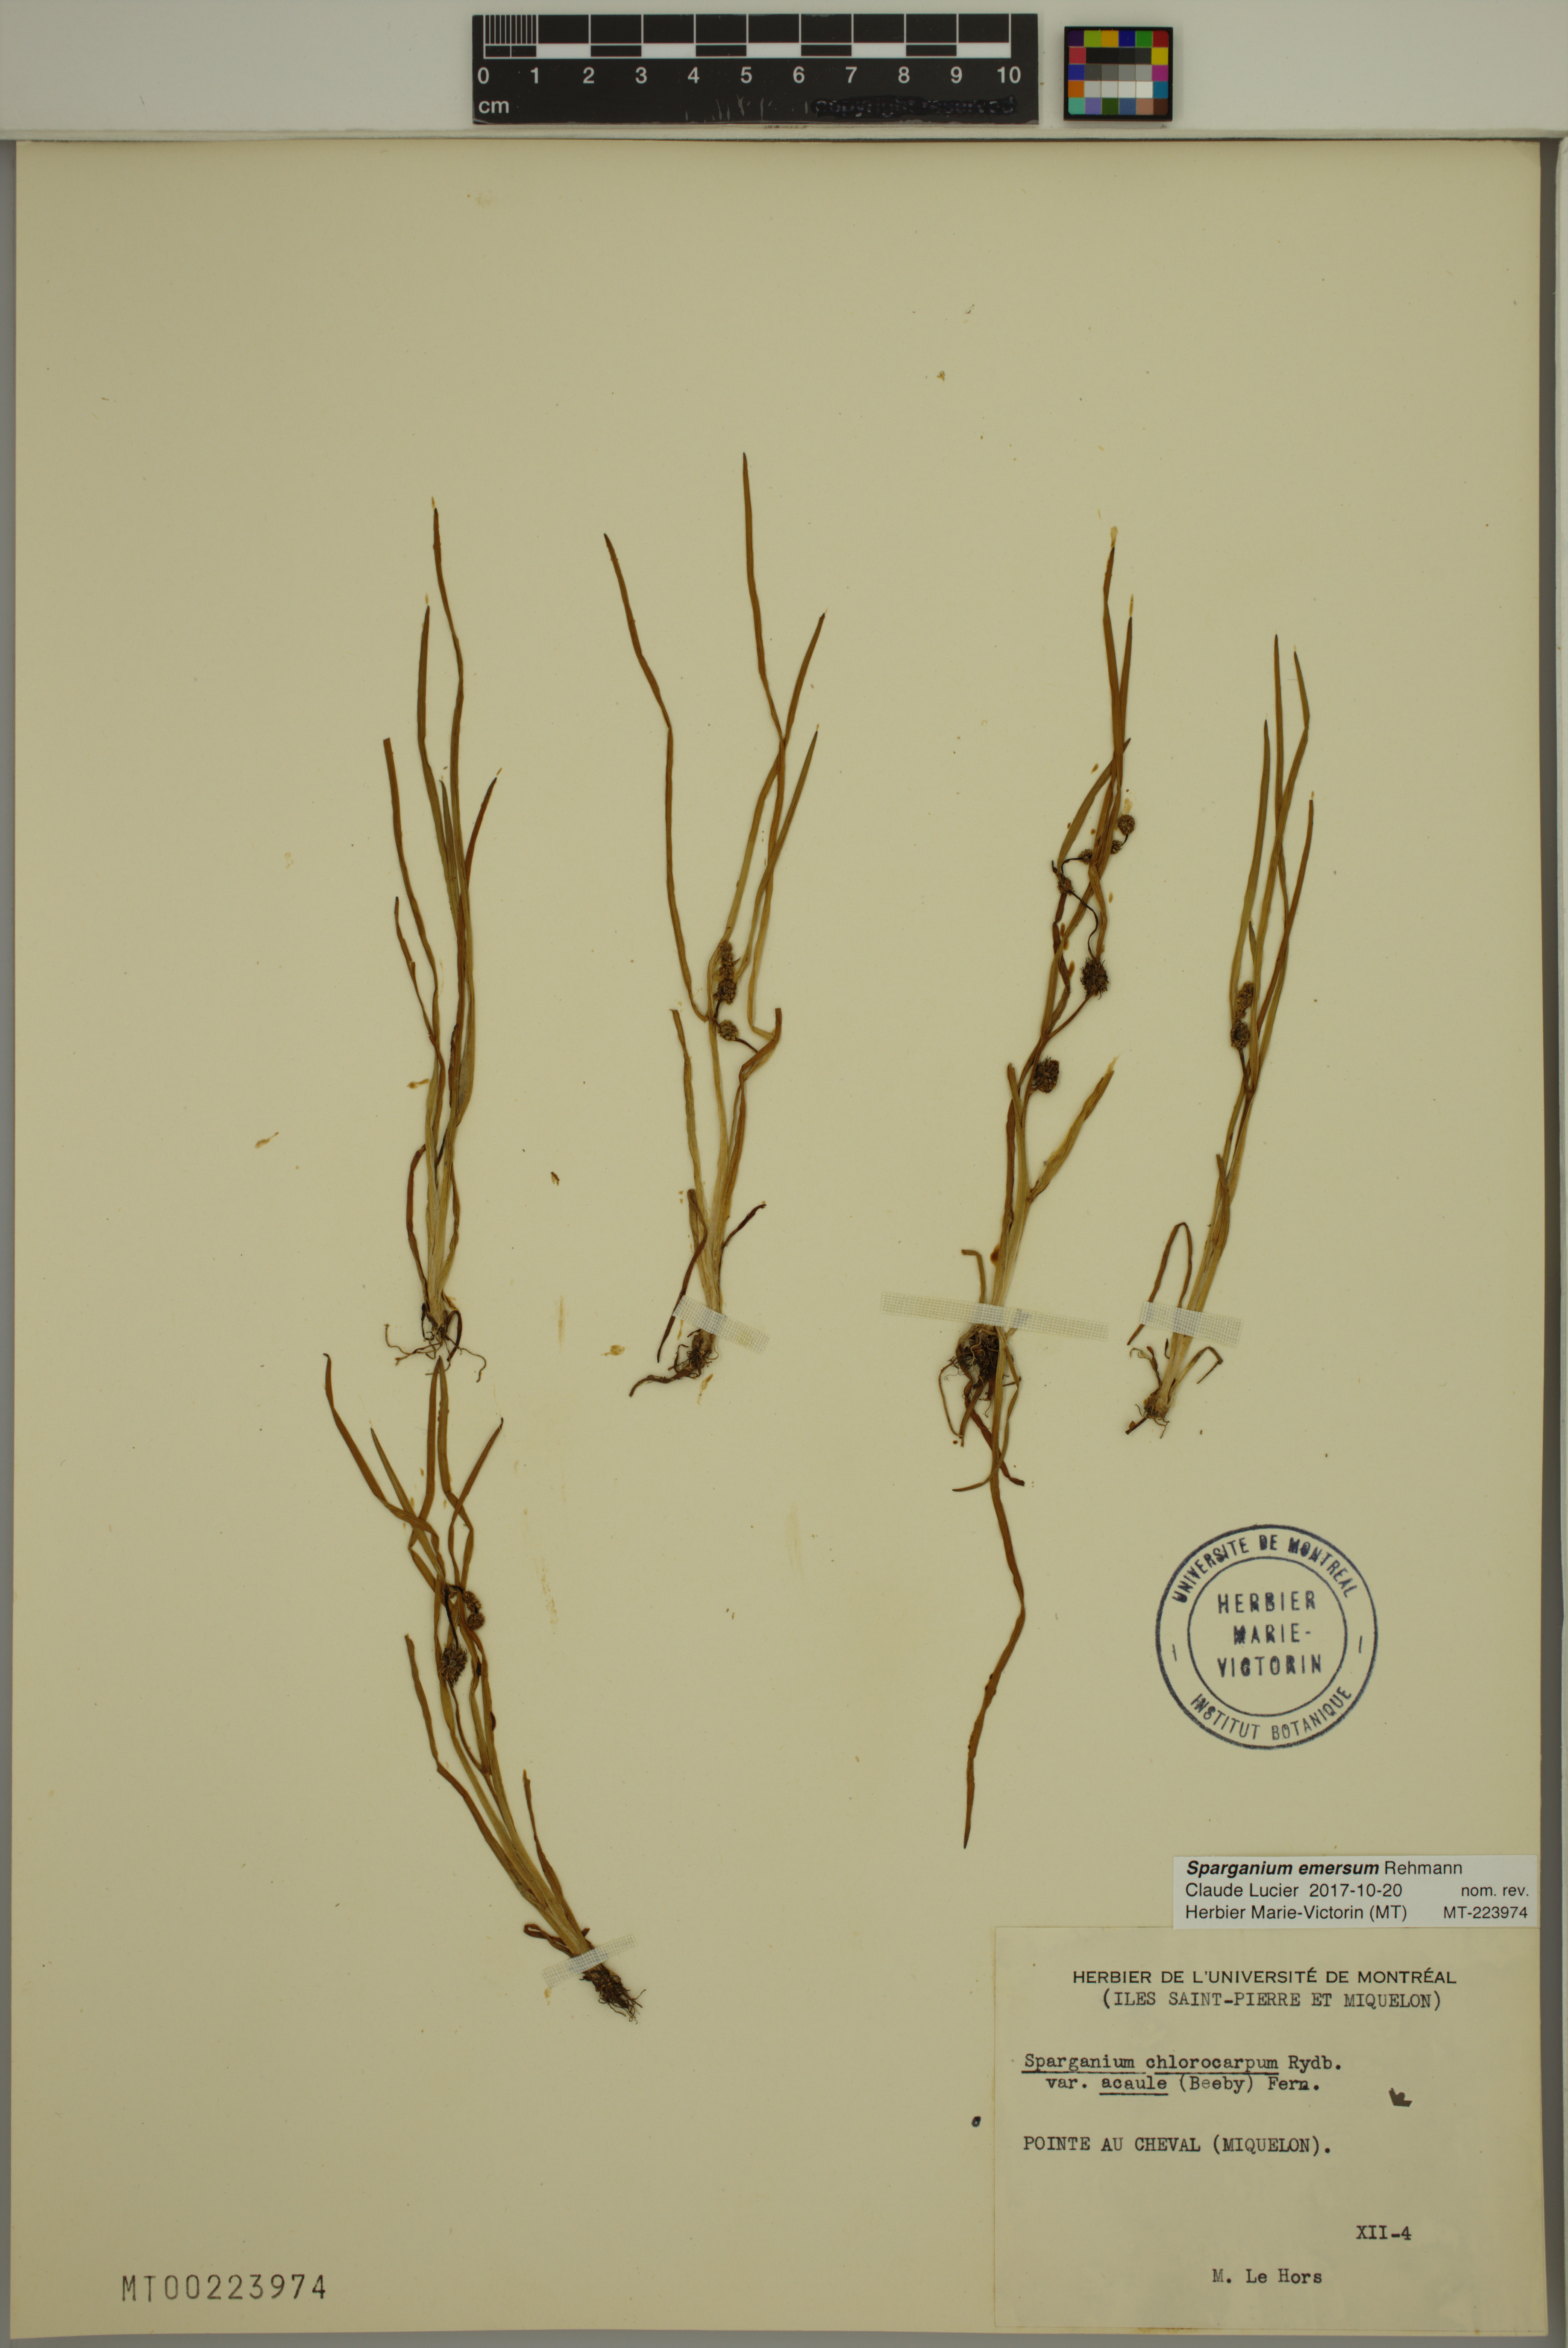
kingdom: Plantae
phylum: Tracheophyta
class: Liliopsida
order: Poales
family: Typhaceae
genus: Sparganium
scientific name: Sparganium emersum
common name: Unbranched bur-reed
